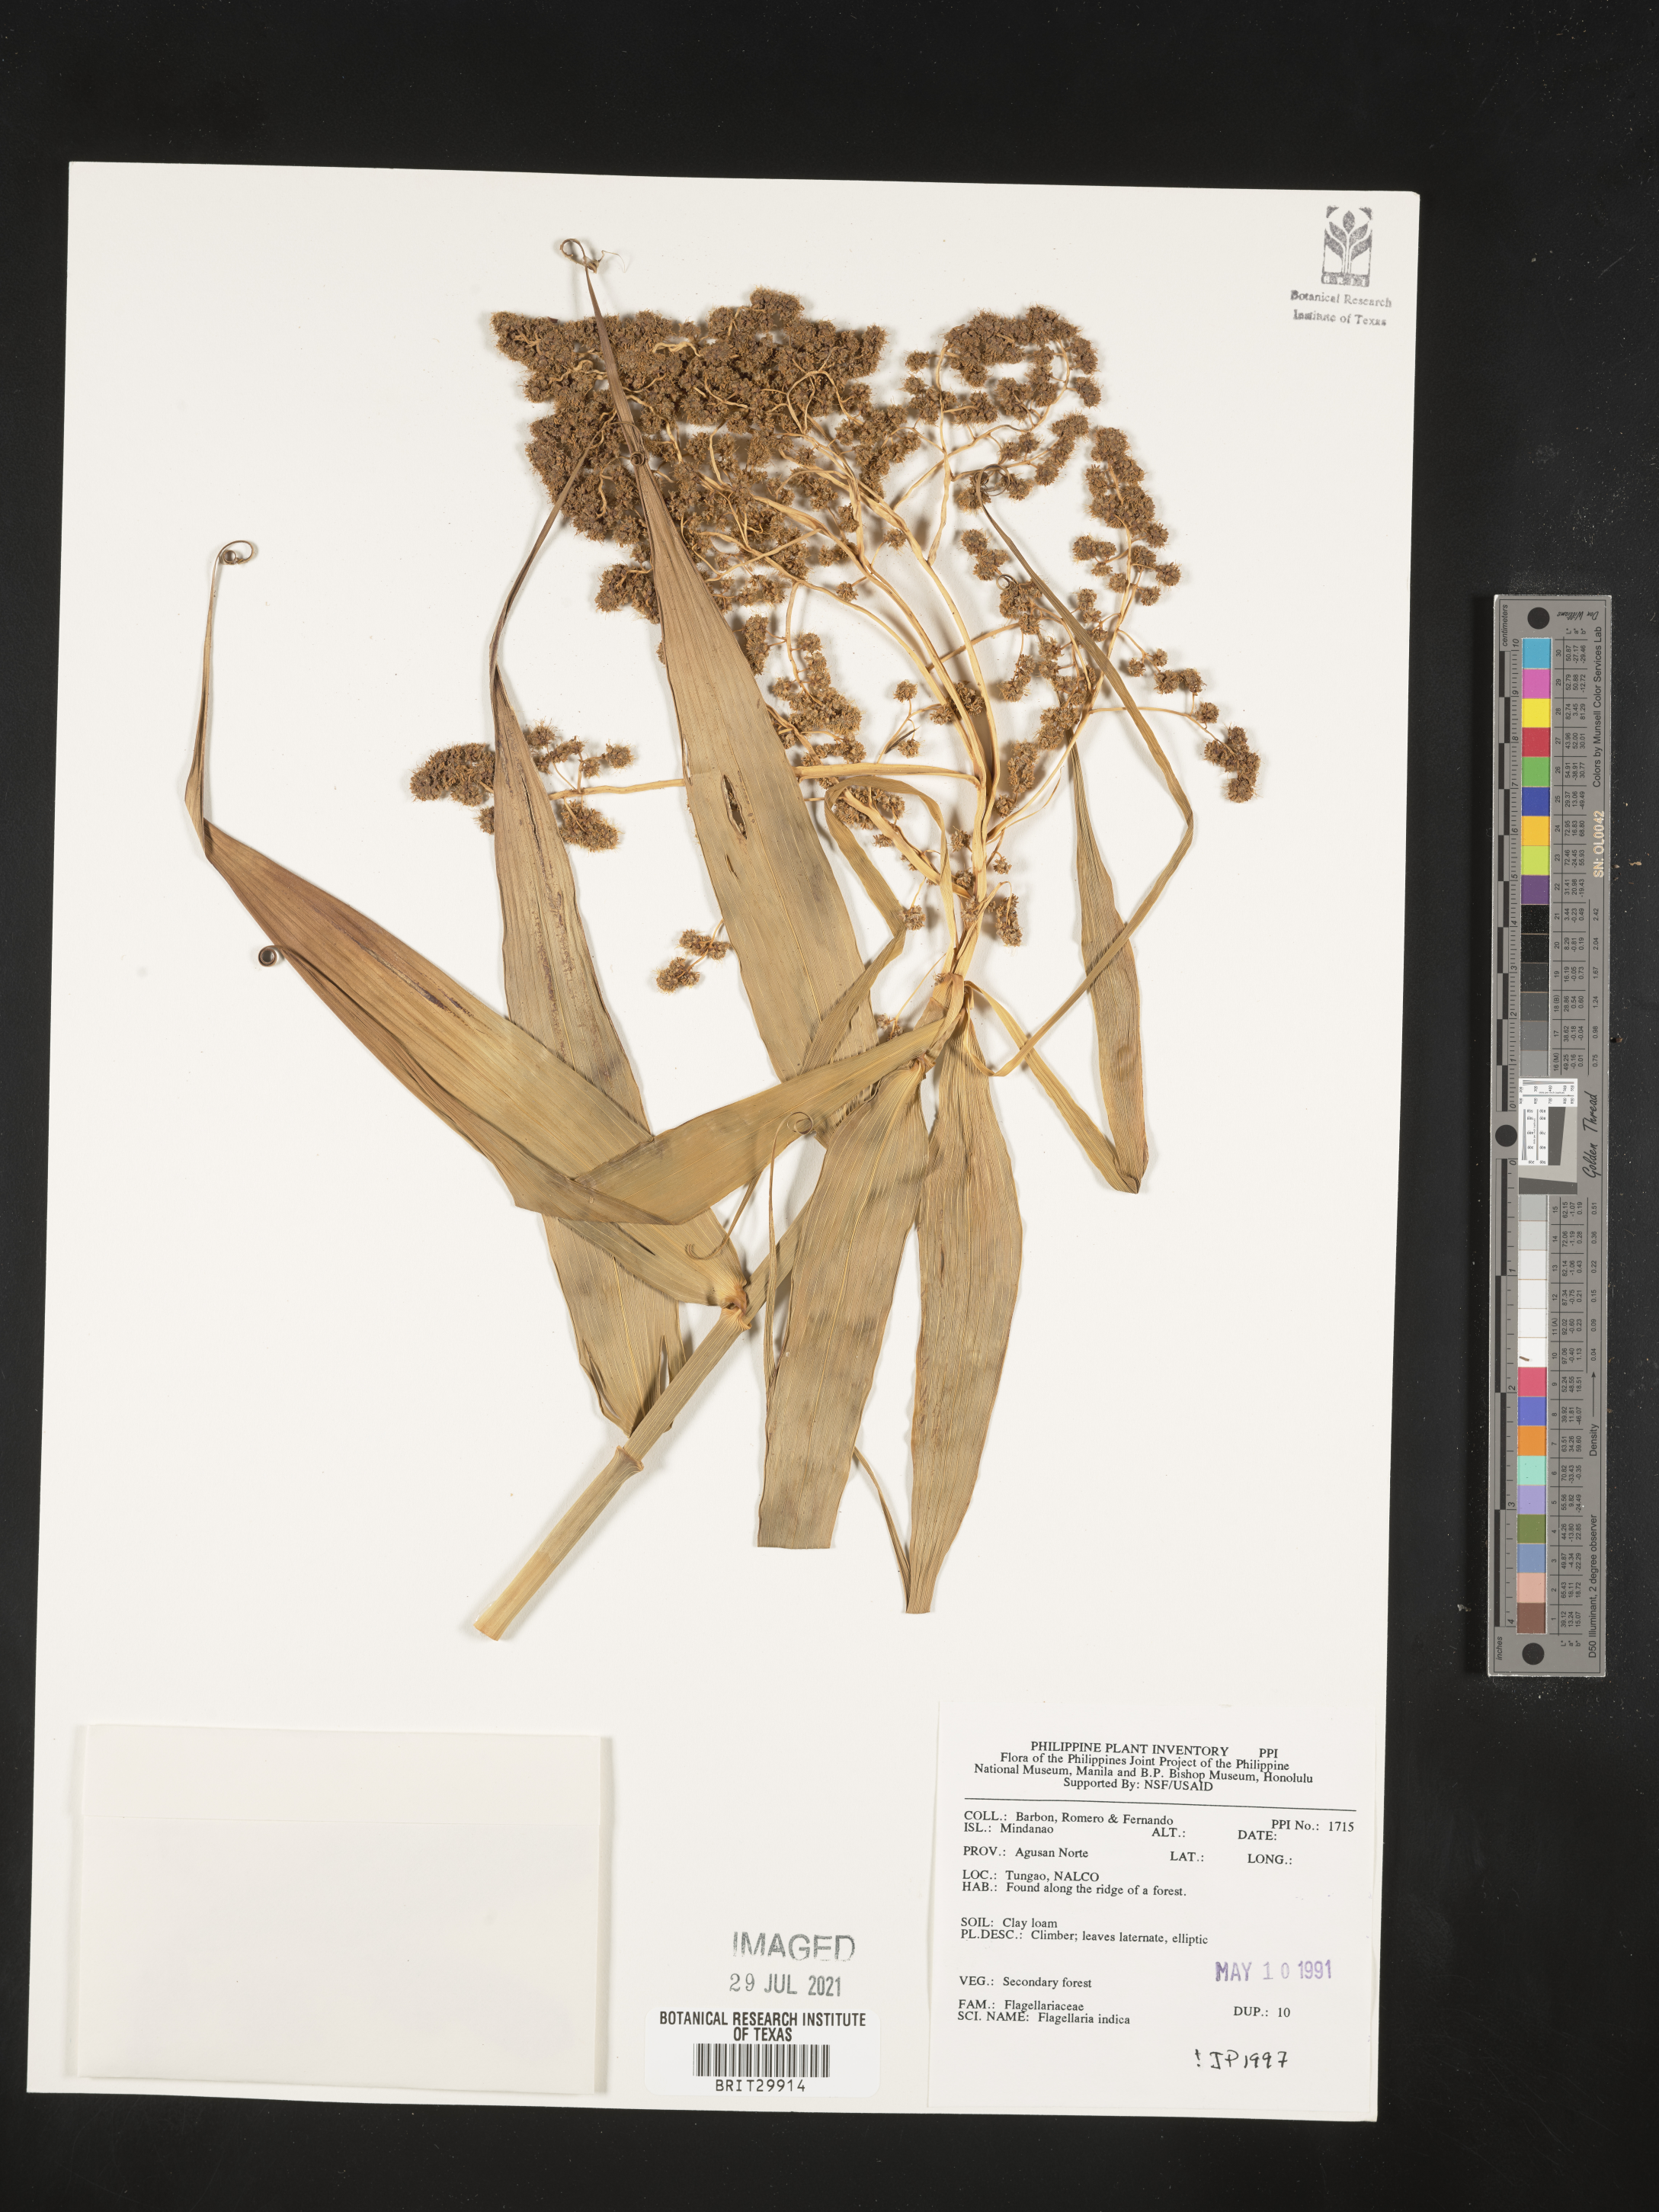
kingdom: Plantae
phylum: Tracheophyta
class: Liliopsida
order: Poales
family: Flagellariaceae
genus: Flagellaria
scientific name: Flagellaria indica
